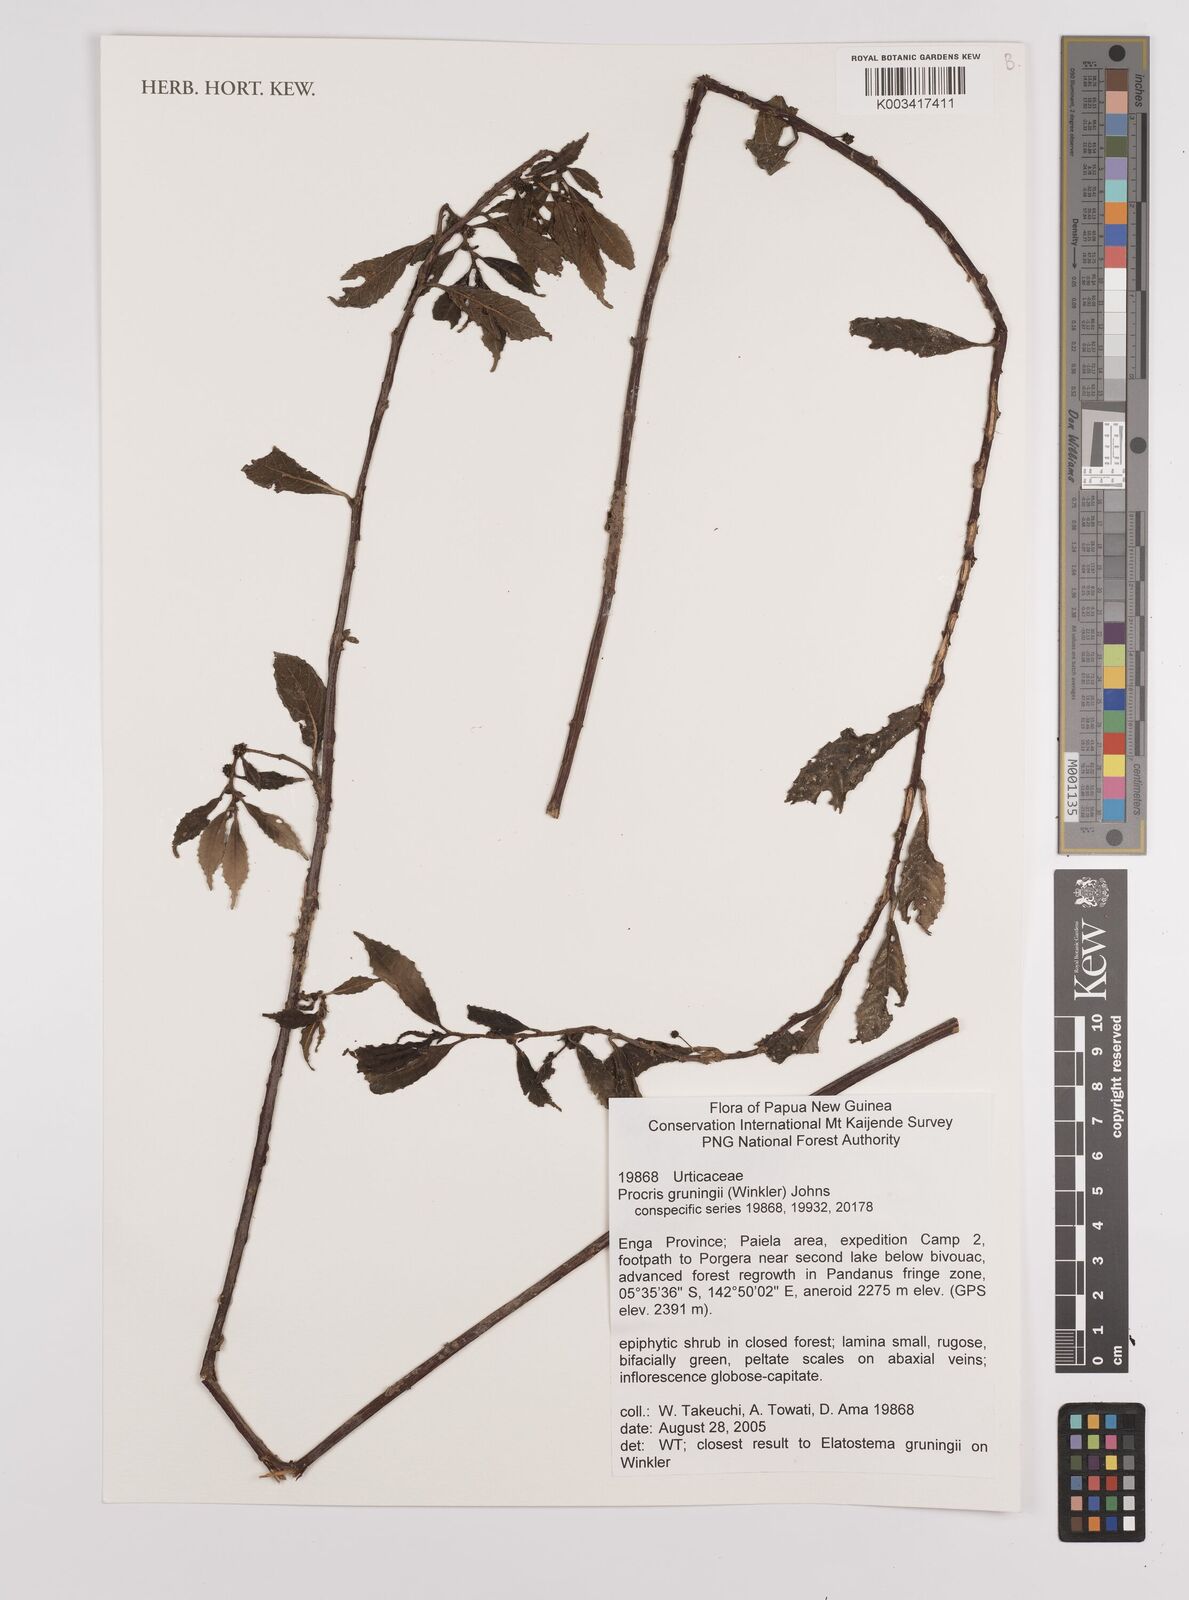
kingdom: Plantae
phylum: Tracheophyta
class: Magnoliopsida
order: Rosales
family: Urticaceae
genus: Procris
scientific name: Procris grueningii
